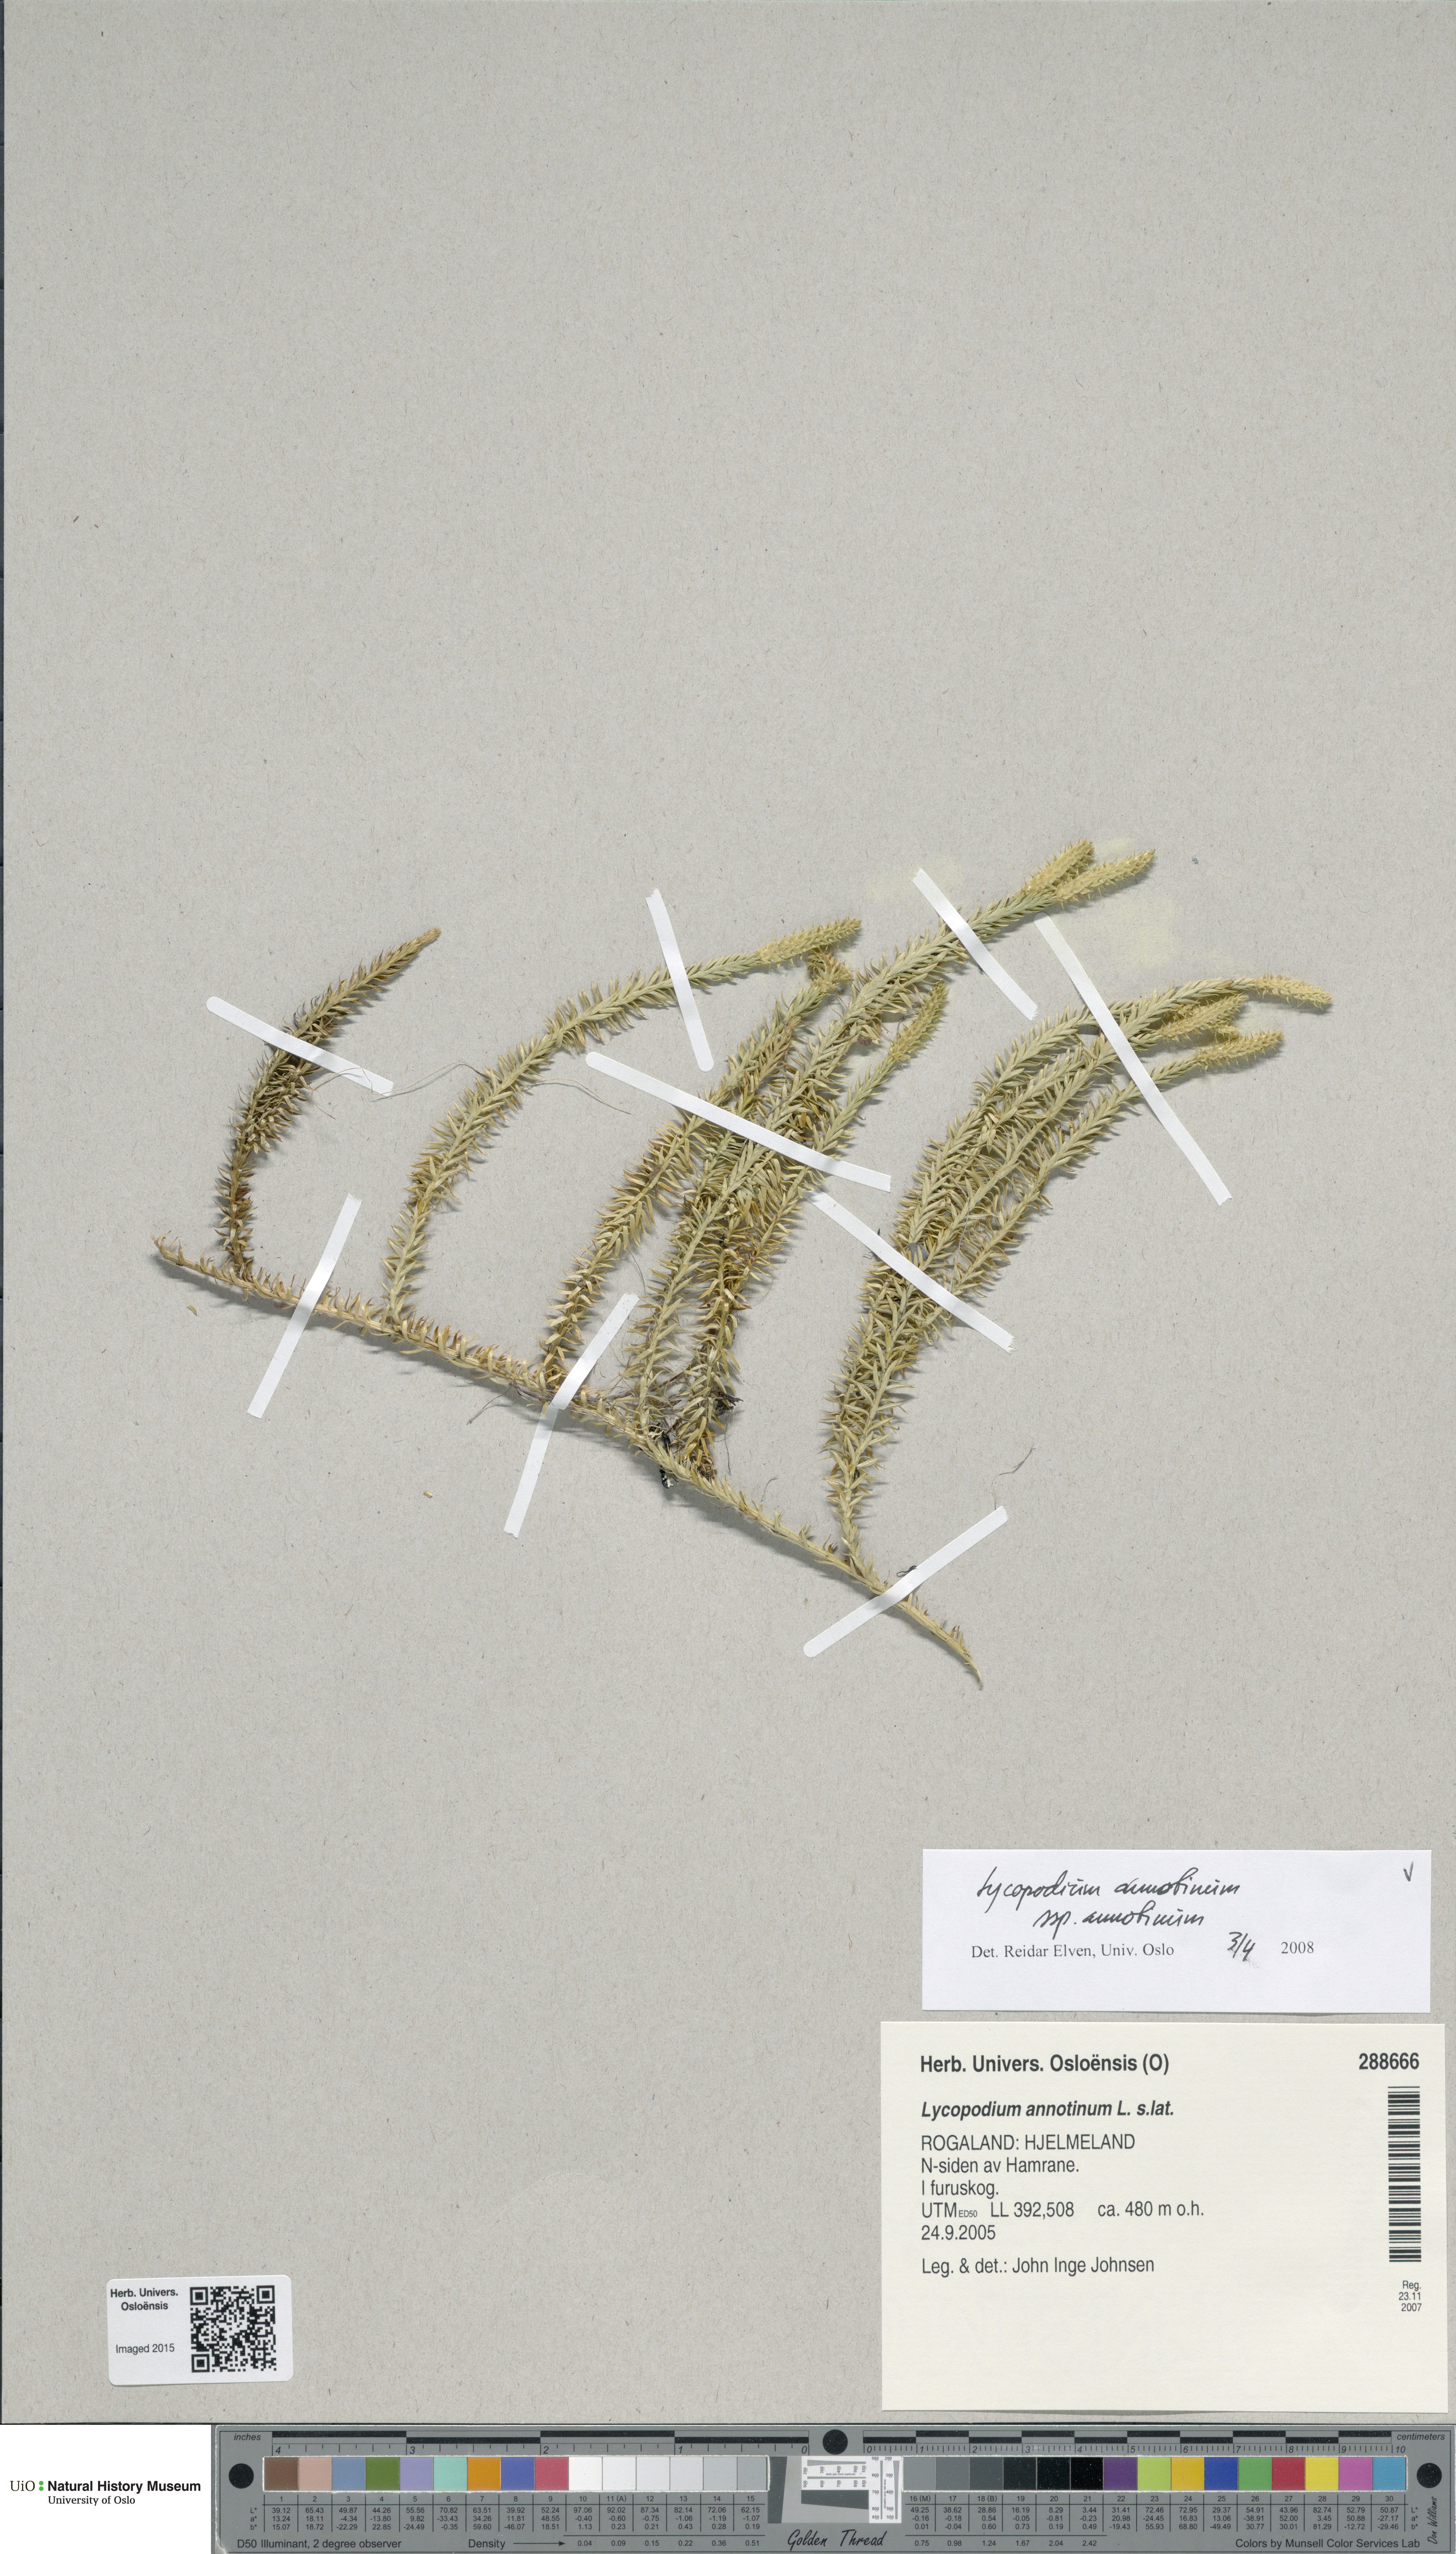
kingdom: Plantae
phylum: Tracheophyta
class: Lycopodiopsida
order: Lycopodiales
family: Lycopodiaceae
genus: Spinulum
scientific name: Spinulum annotinum
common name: Interrupted club-moss
